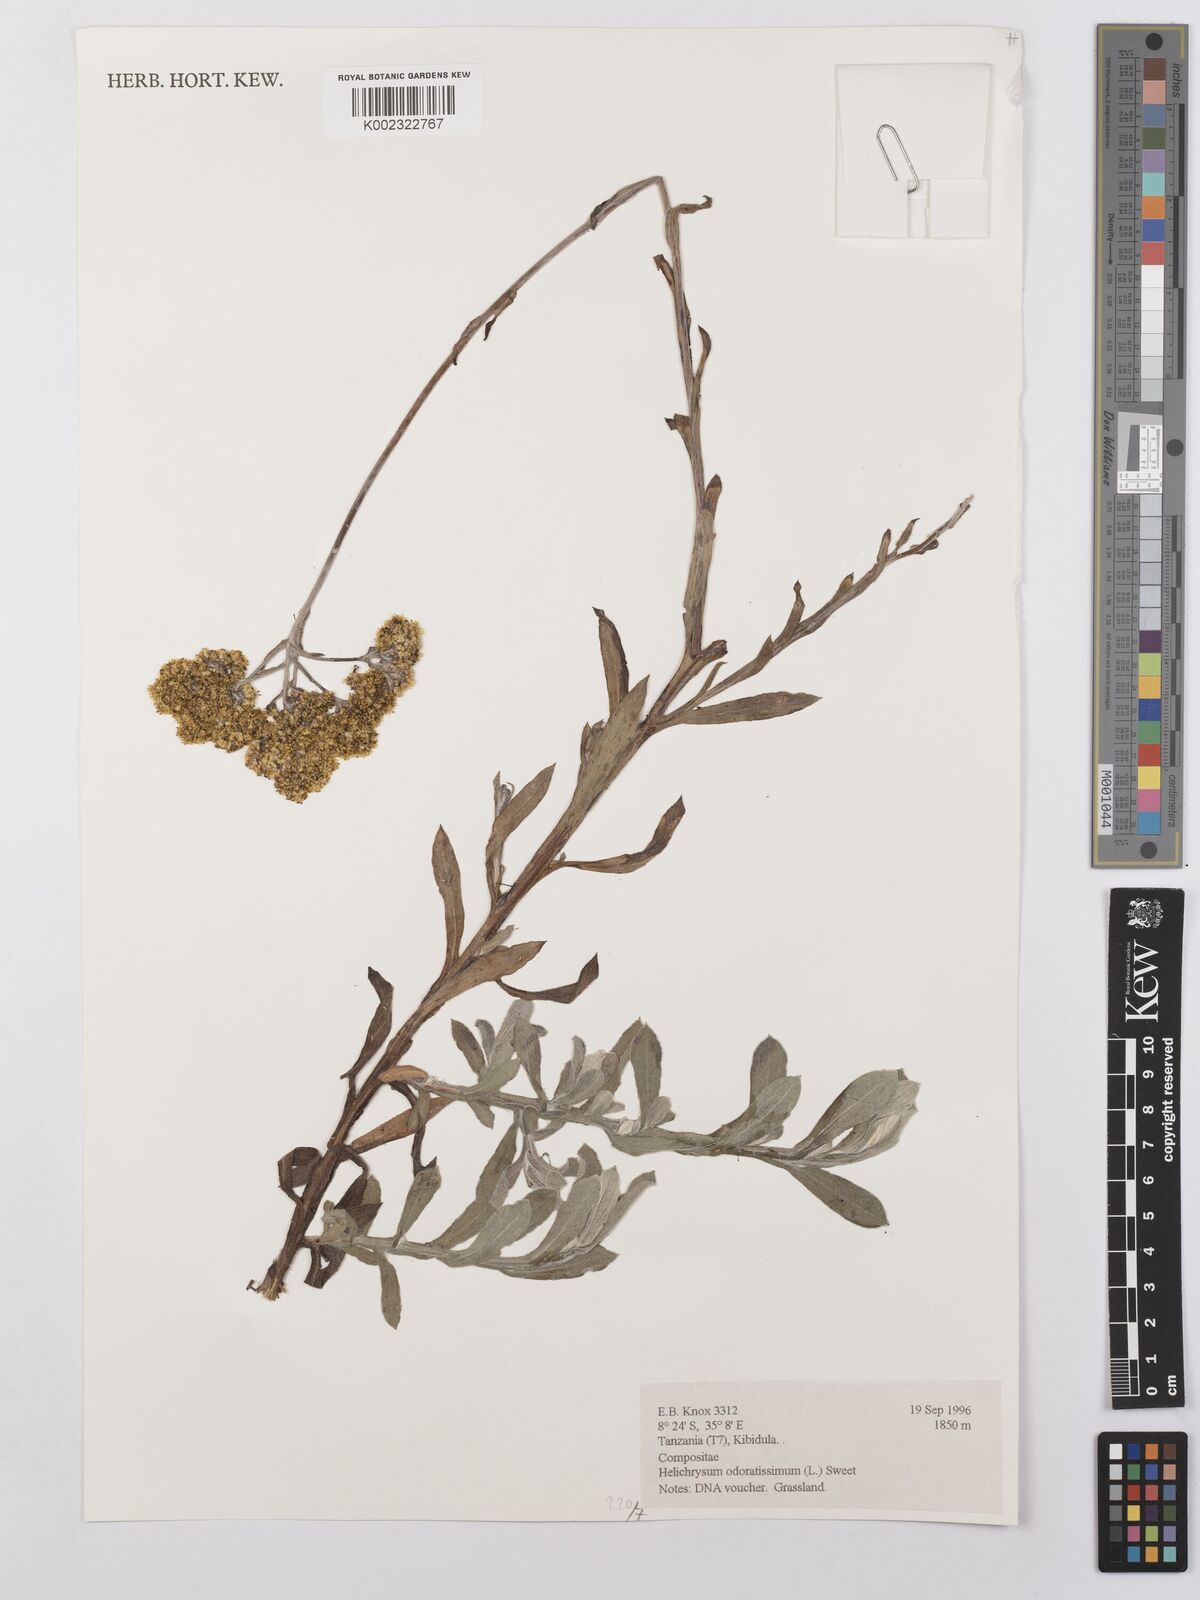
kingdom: Plantae
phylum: Tracheophyta
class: Magnoliopsida
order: Asterales
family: Asteraceae
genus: Helichrysum
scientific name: Helichrysum odoratissimum
